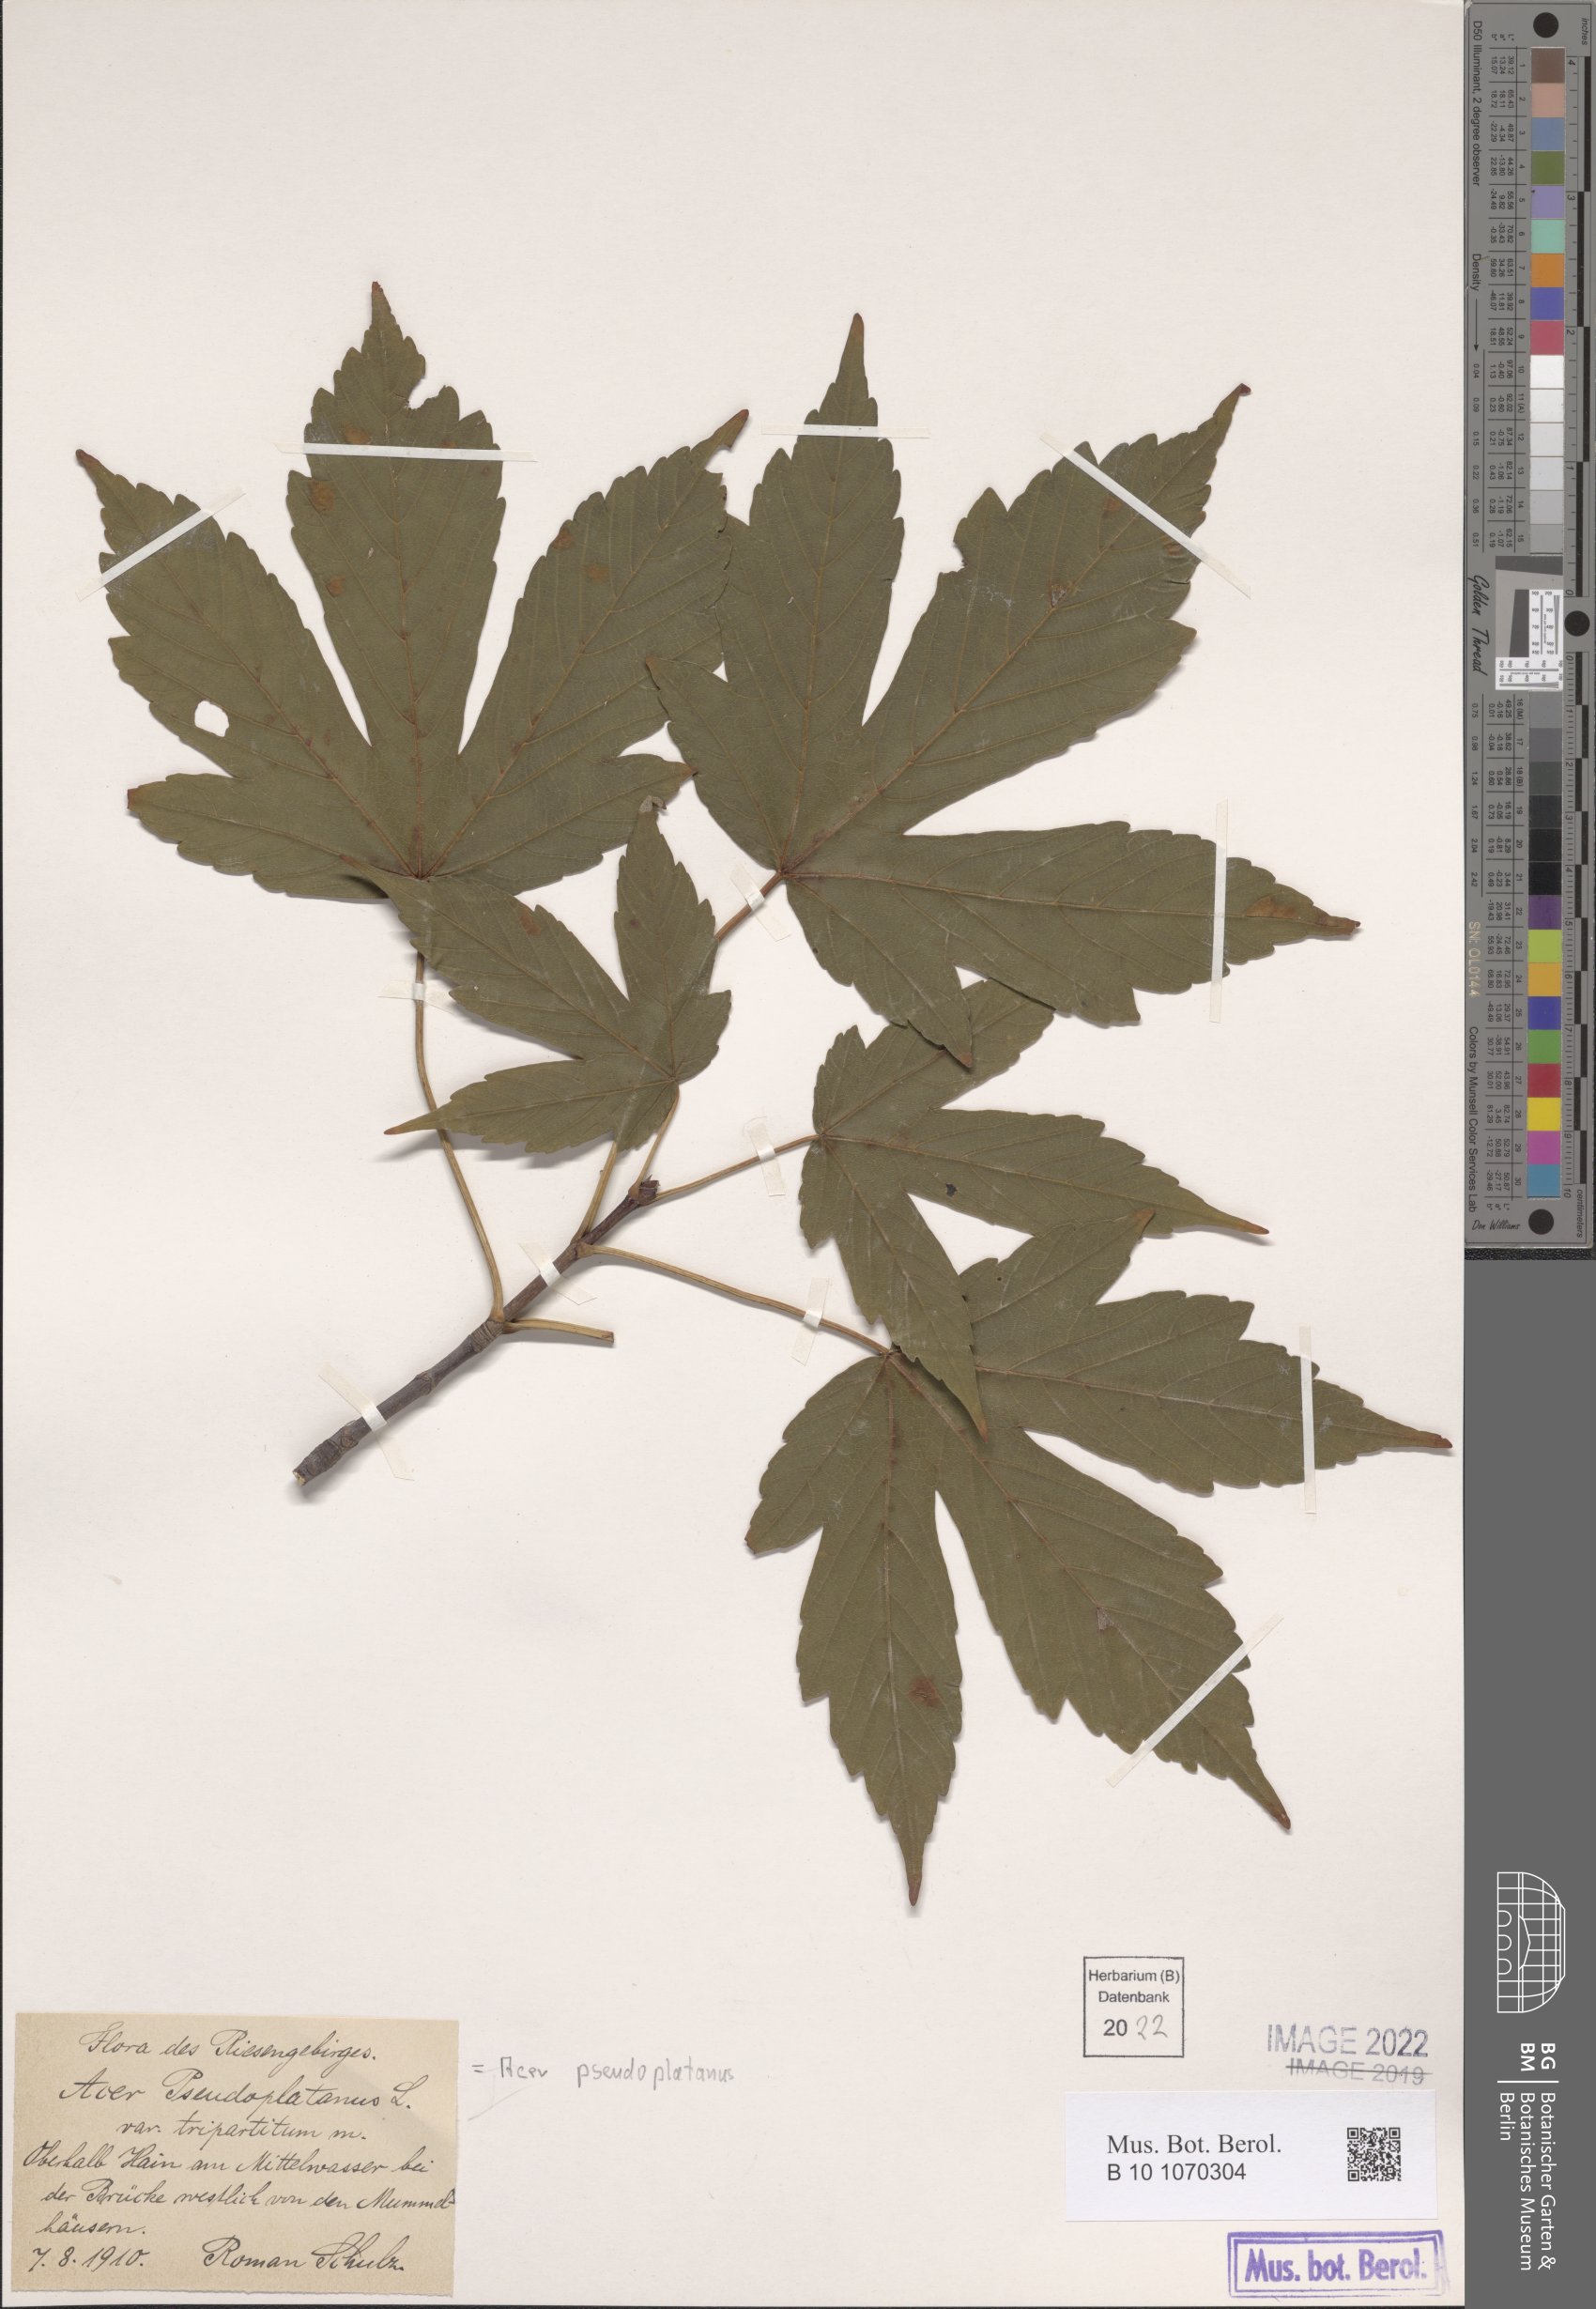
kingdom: Plantae
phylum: Tracheophyta
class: Magnoliopsida
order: Sapindales
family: Sapindaceae
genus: Acer
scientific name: Acer pseudoplatanus
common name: Sycamore
